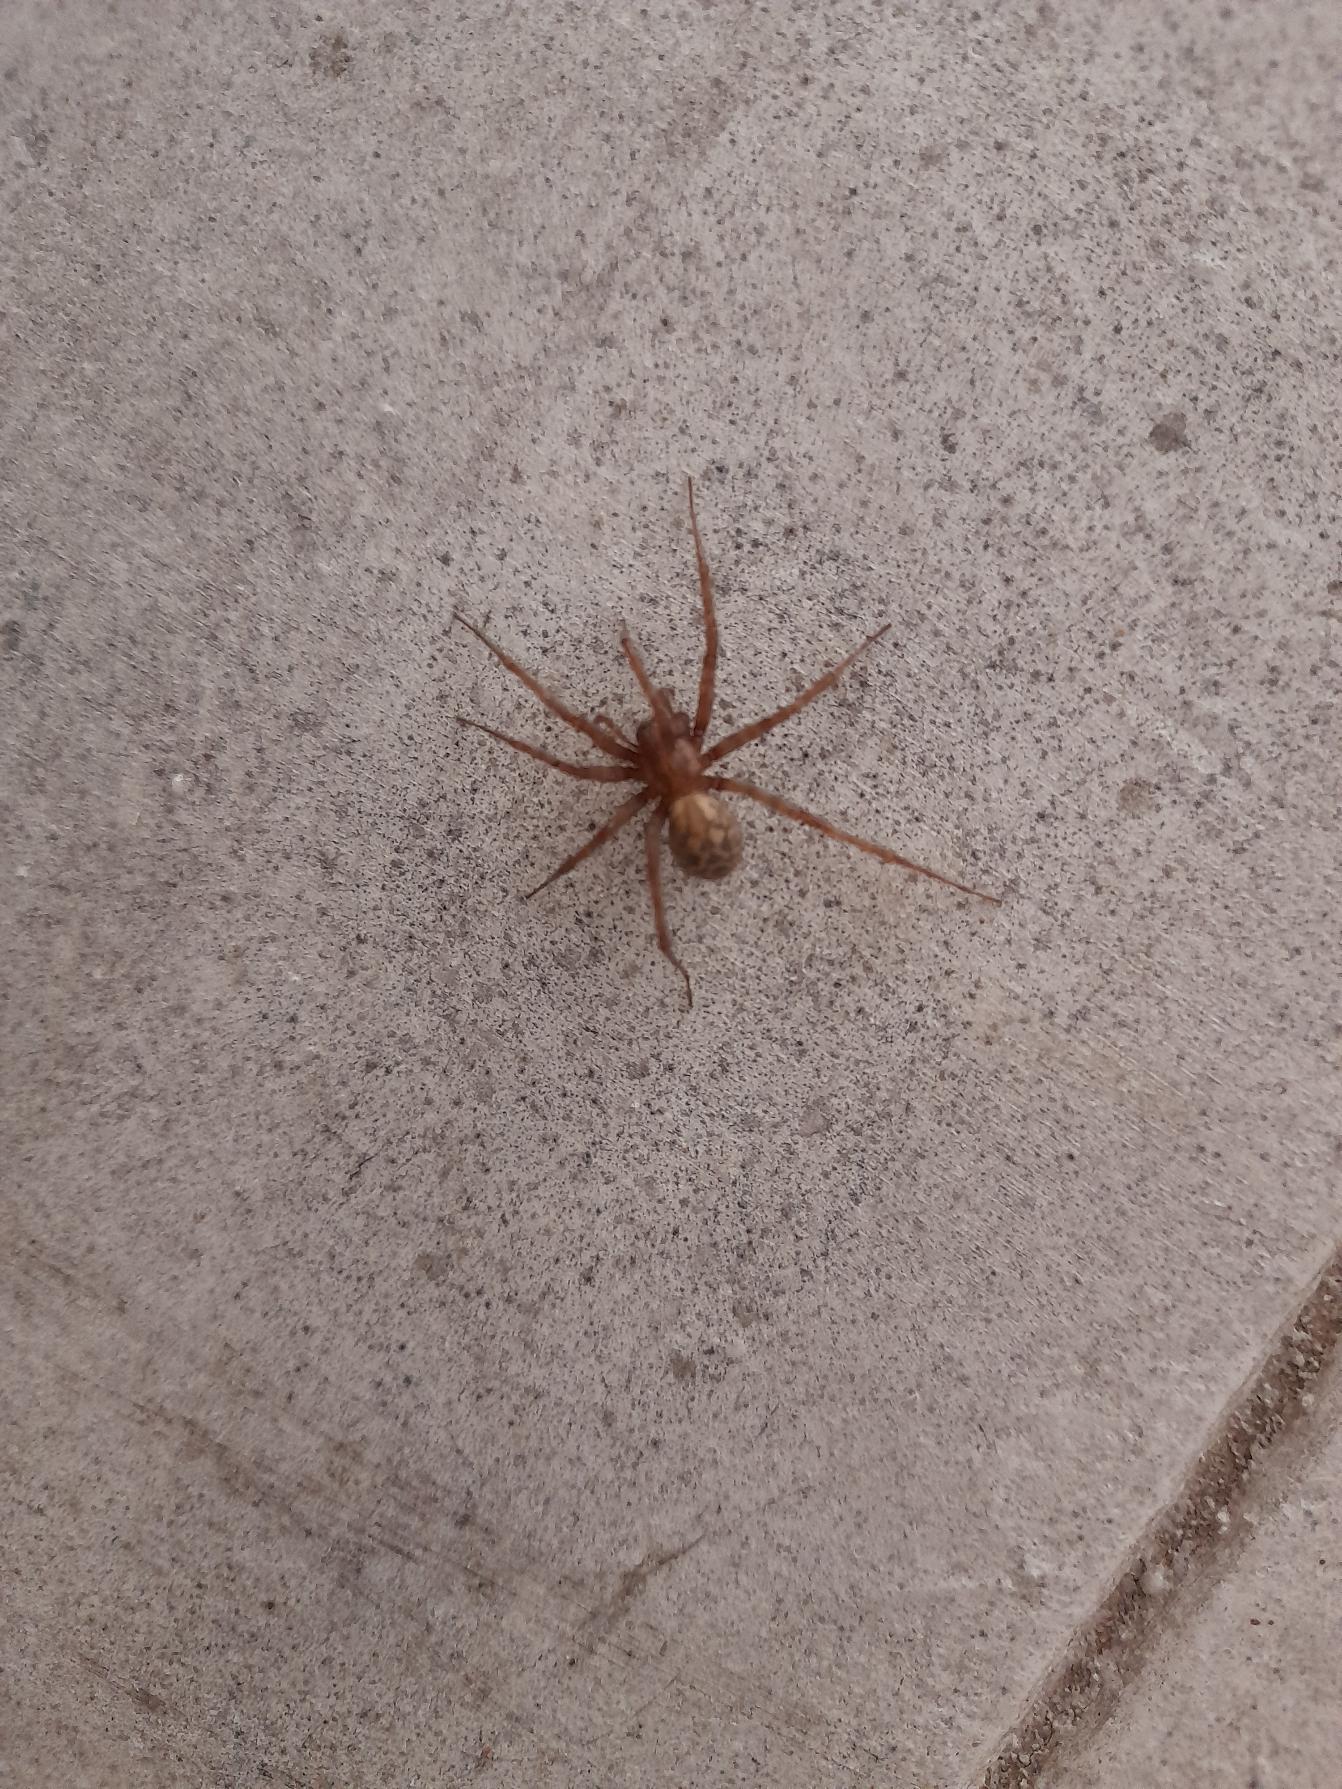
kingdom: Animalia
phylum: Arthropoda
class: Arachnida
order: Araneae
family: Agelenidae
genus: Tegenaria
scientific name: Tegenaria domestica
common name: Lille husedderkop
